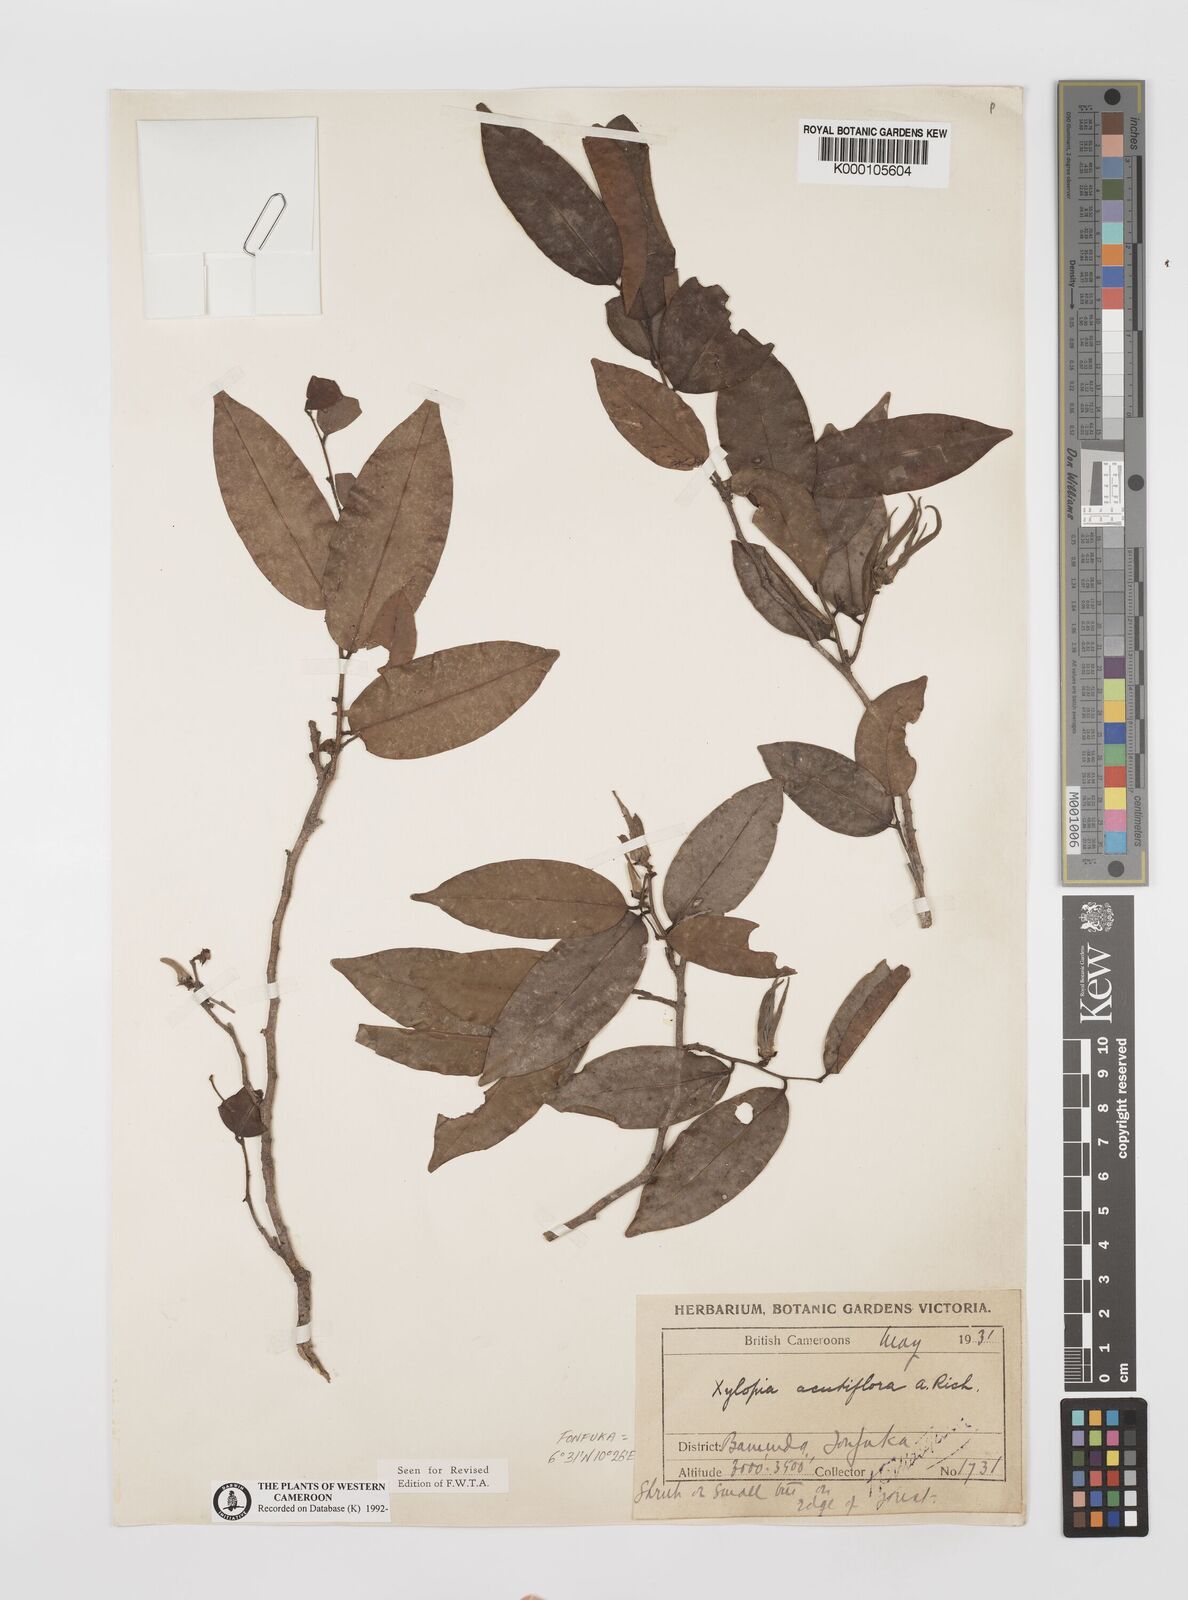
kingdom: Plantae
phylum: Tracheophyta
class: Magnoliopsida
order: Magnoliales
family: Annonaceae
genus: Xylopia
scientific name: Xylopia acutiflora
